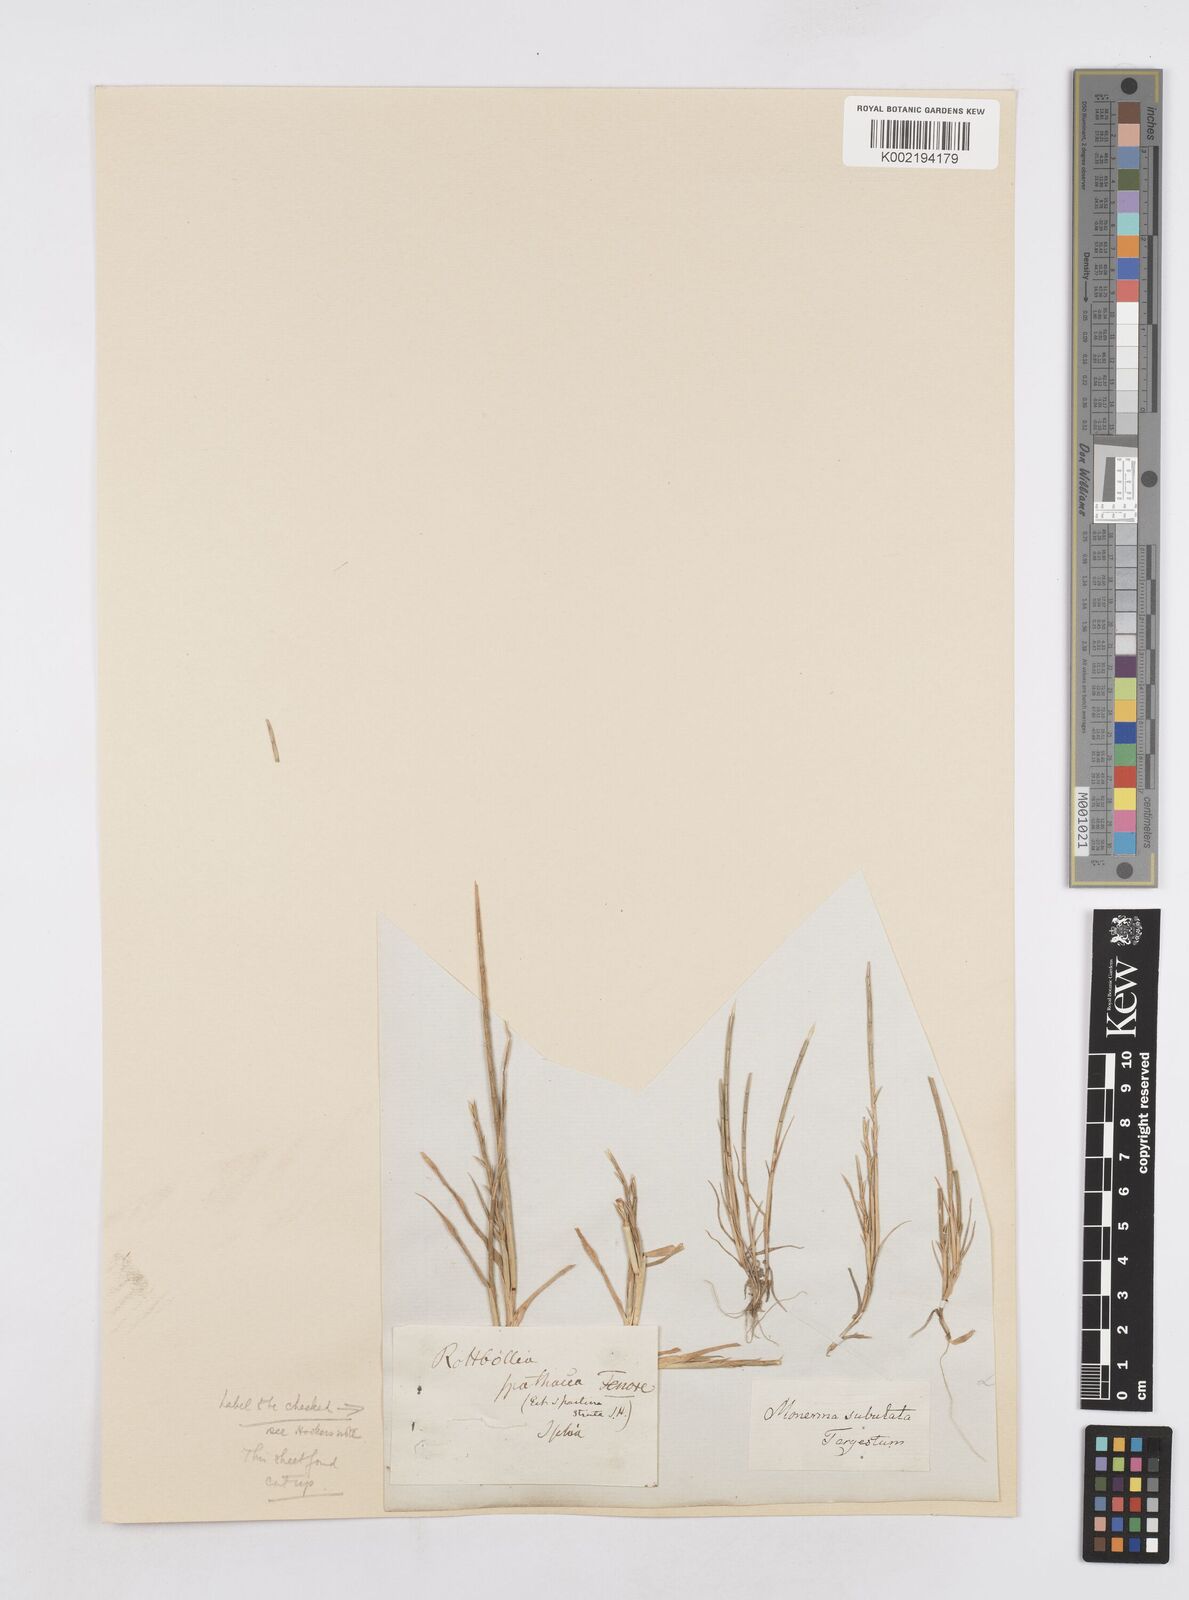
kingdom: Plantae
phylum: Tracheophyta
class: Liliopsida
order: Poales
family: Poaceae
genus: Parapholis
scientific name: Parapholis cylindrica
